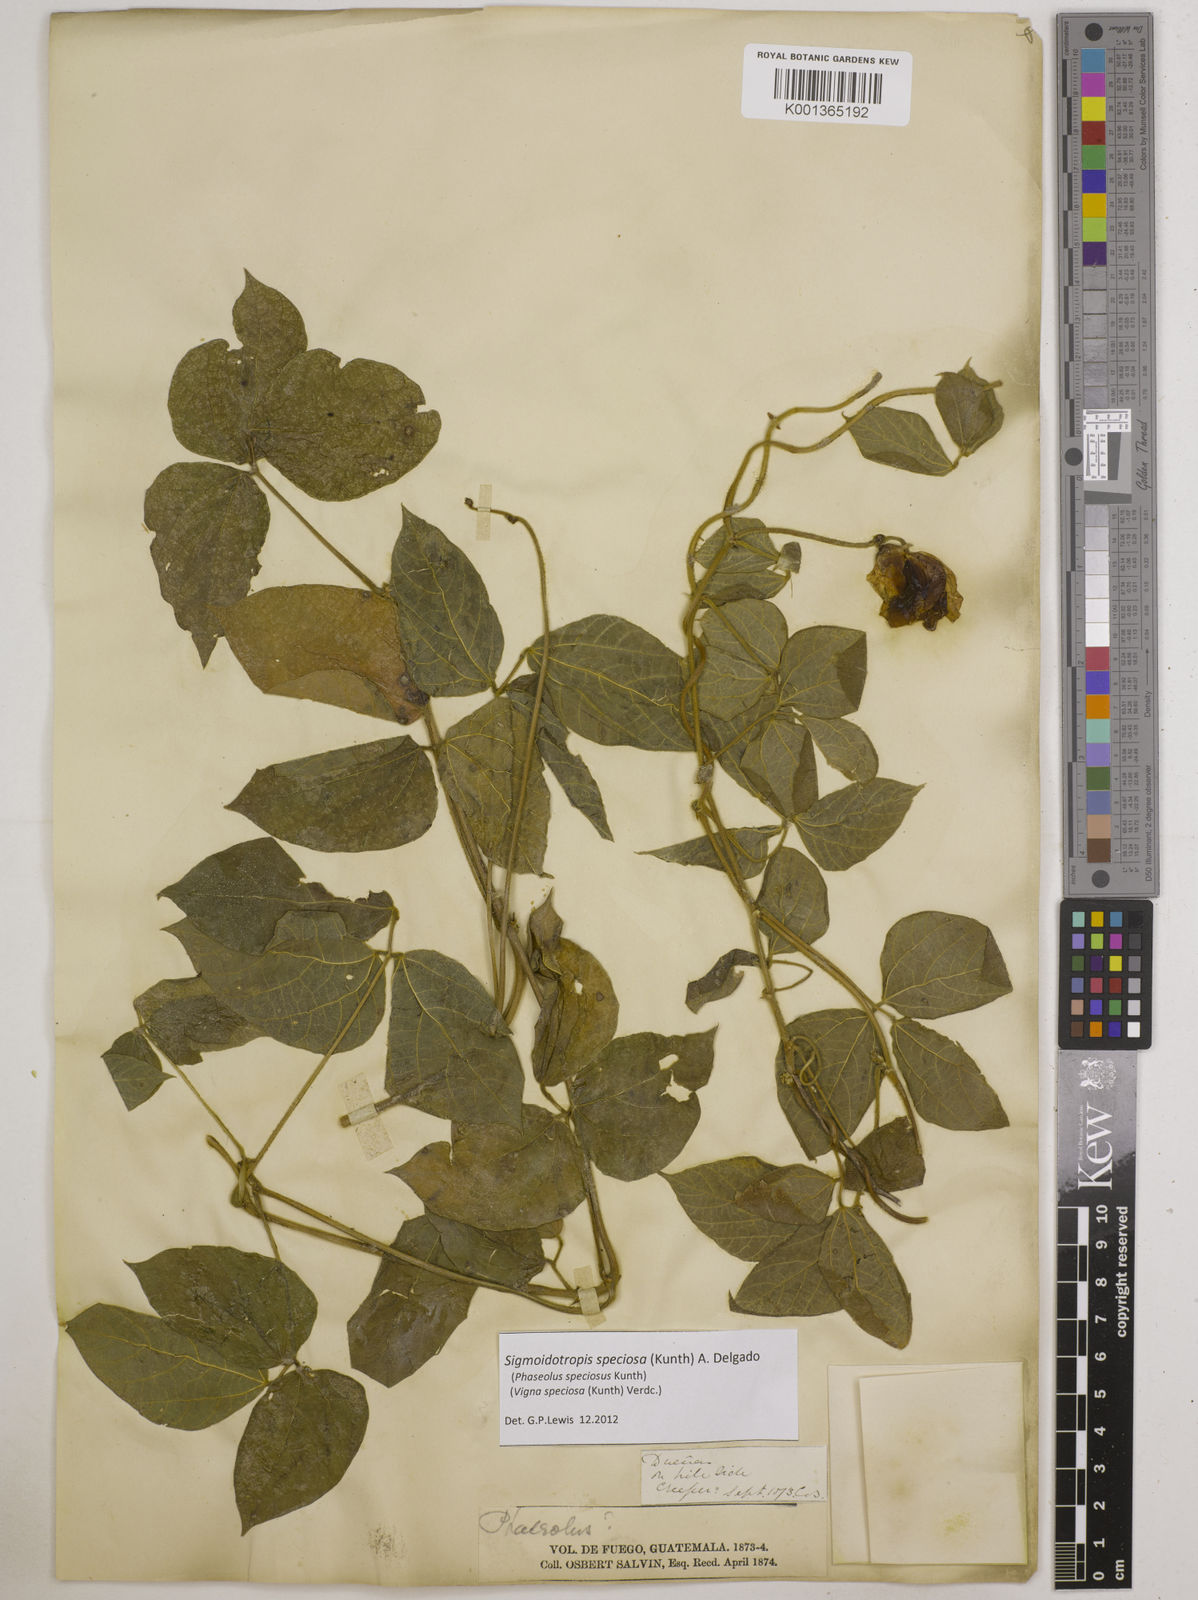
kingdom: Plantae
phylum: Tracheophyta
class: Magnoliopsida
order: Fabales
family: Fabaceae
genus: Sigmoidotropis
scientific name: Sigmoidotropis speciosa
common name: Snail flower
